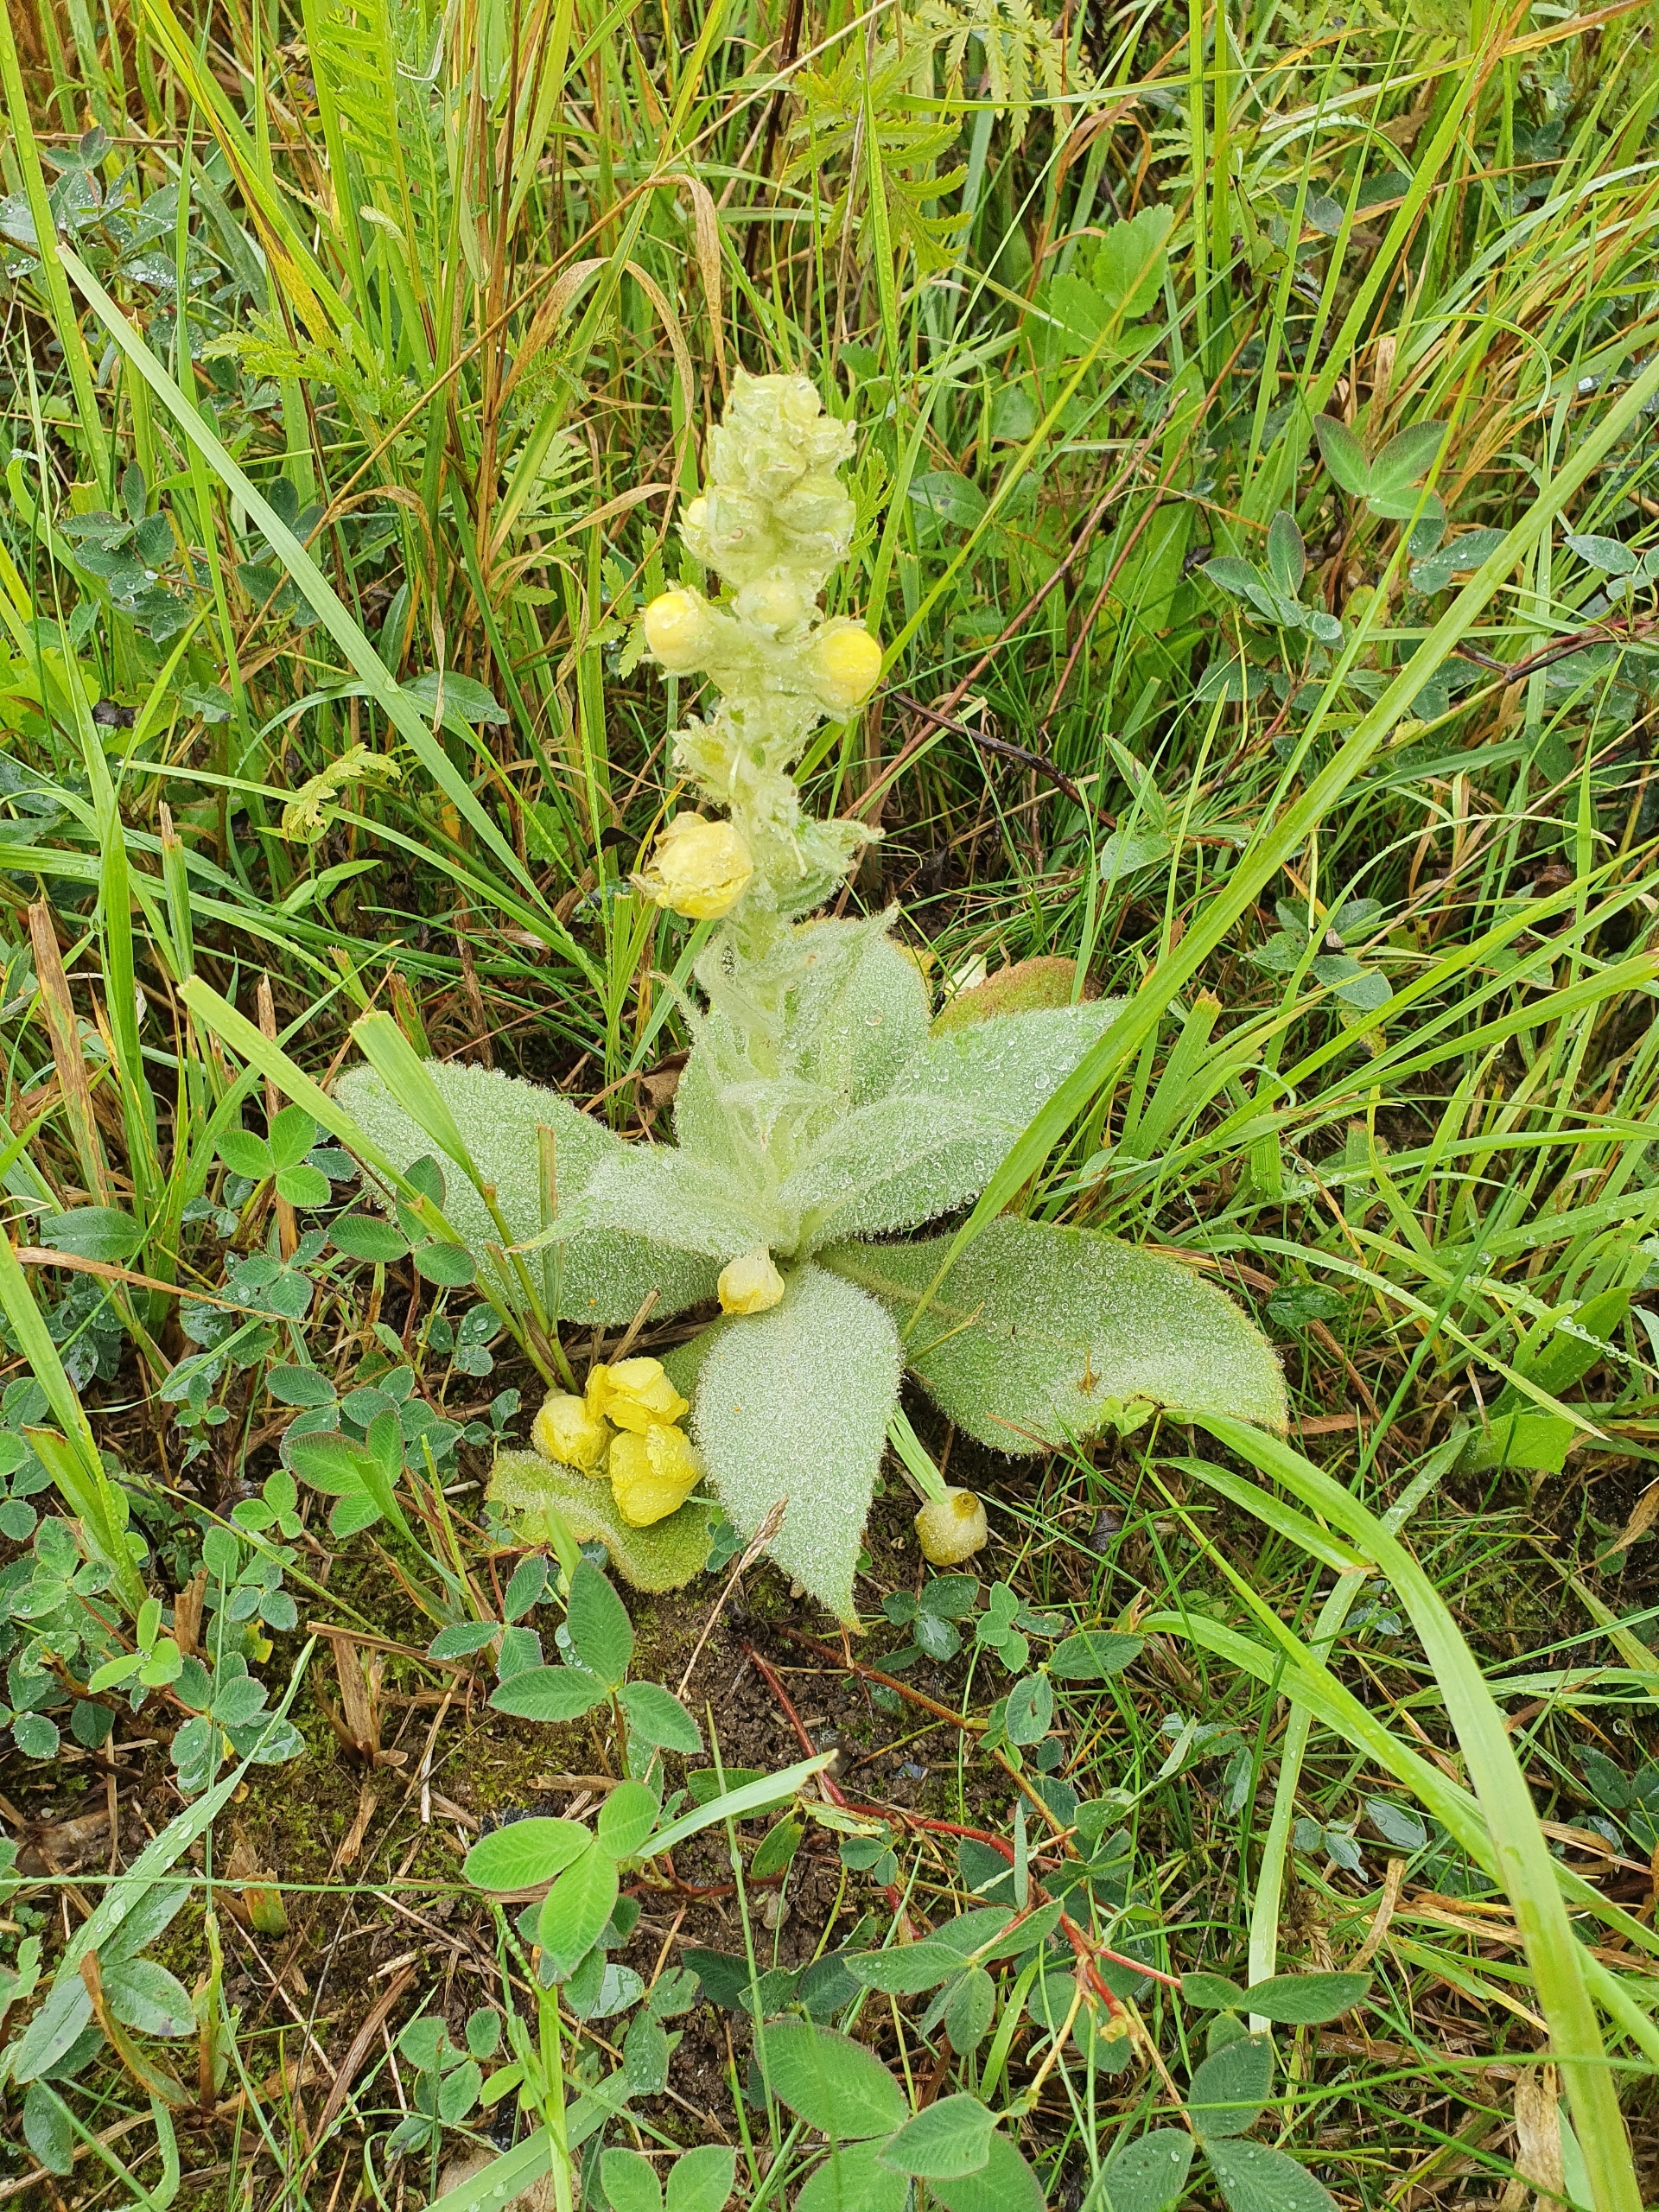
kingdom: Plantae
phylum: Tracheophyta
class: Magnoliopsida
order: Lamiales
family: Scrophulariaceae
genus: Verbascum
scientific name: Verbascum densiflorum
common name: Uldbladet kongelys
